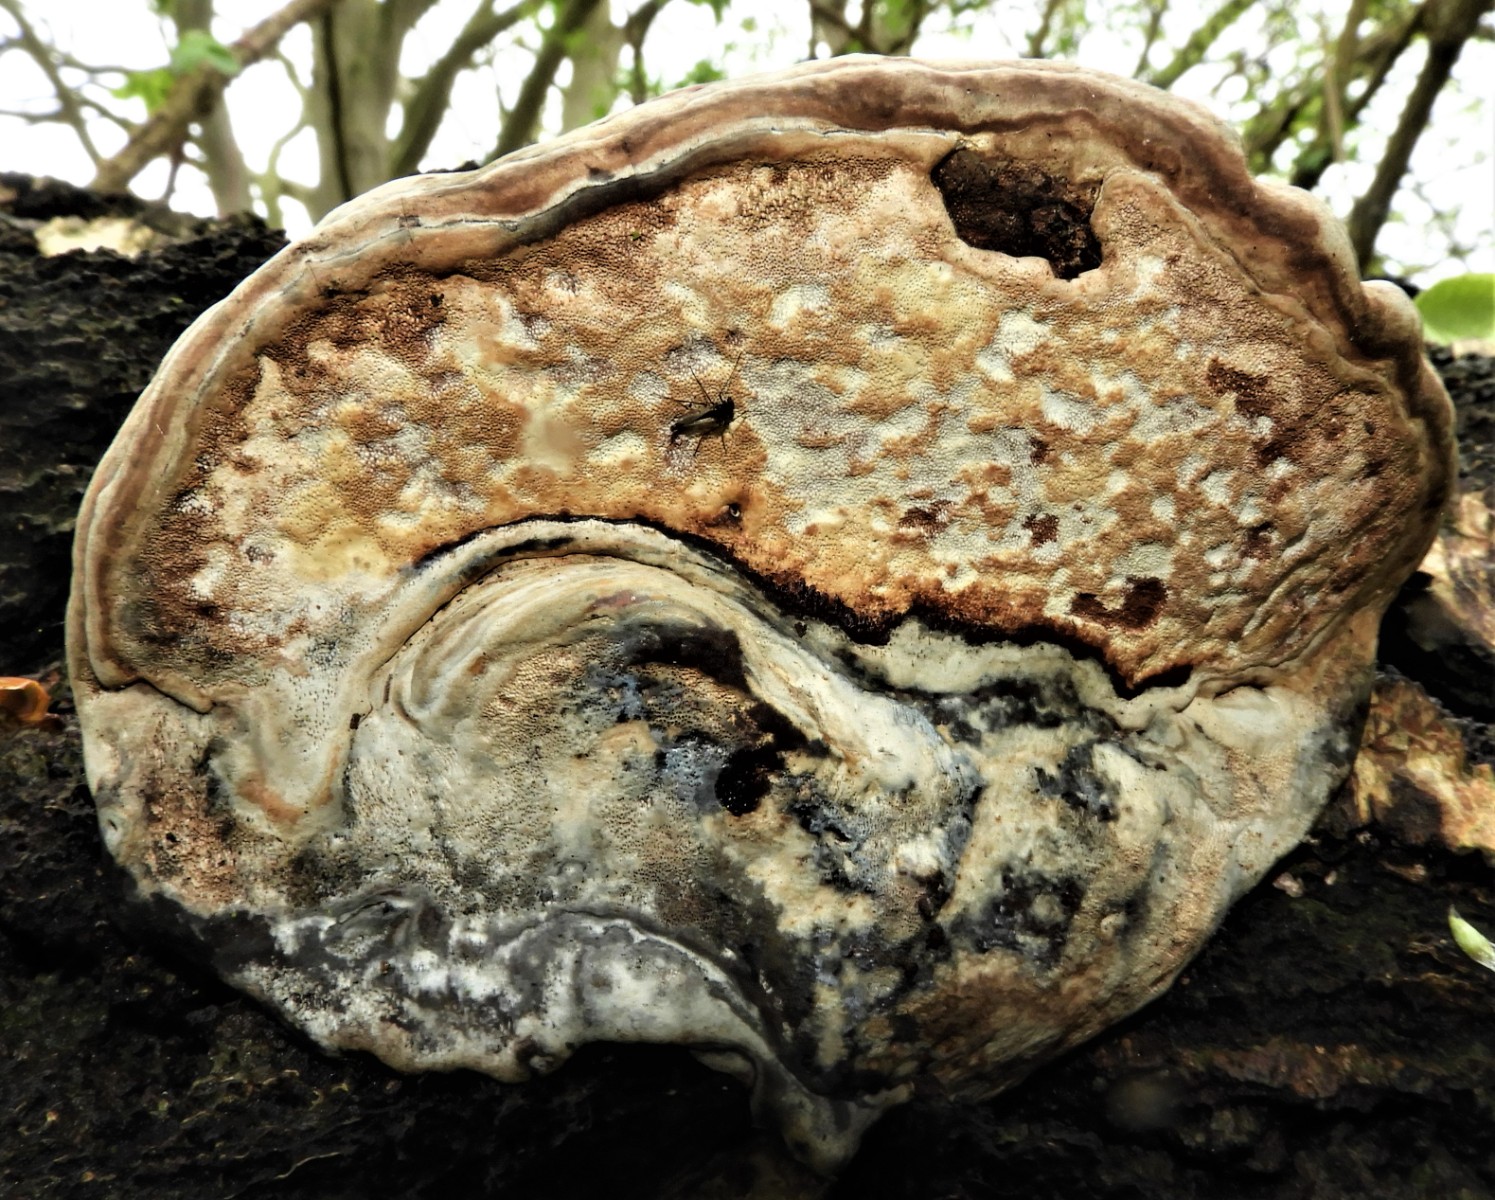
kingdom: Fungi
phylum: Basidiomycota
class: Agaricomycetes
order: Polyporales
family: Polyporaceae
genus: Fomes
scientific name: Fomes fomentarius
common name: tøndersvamp
